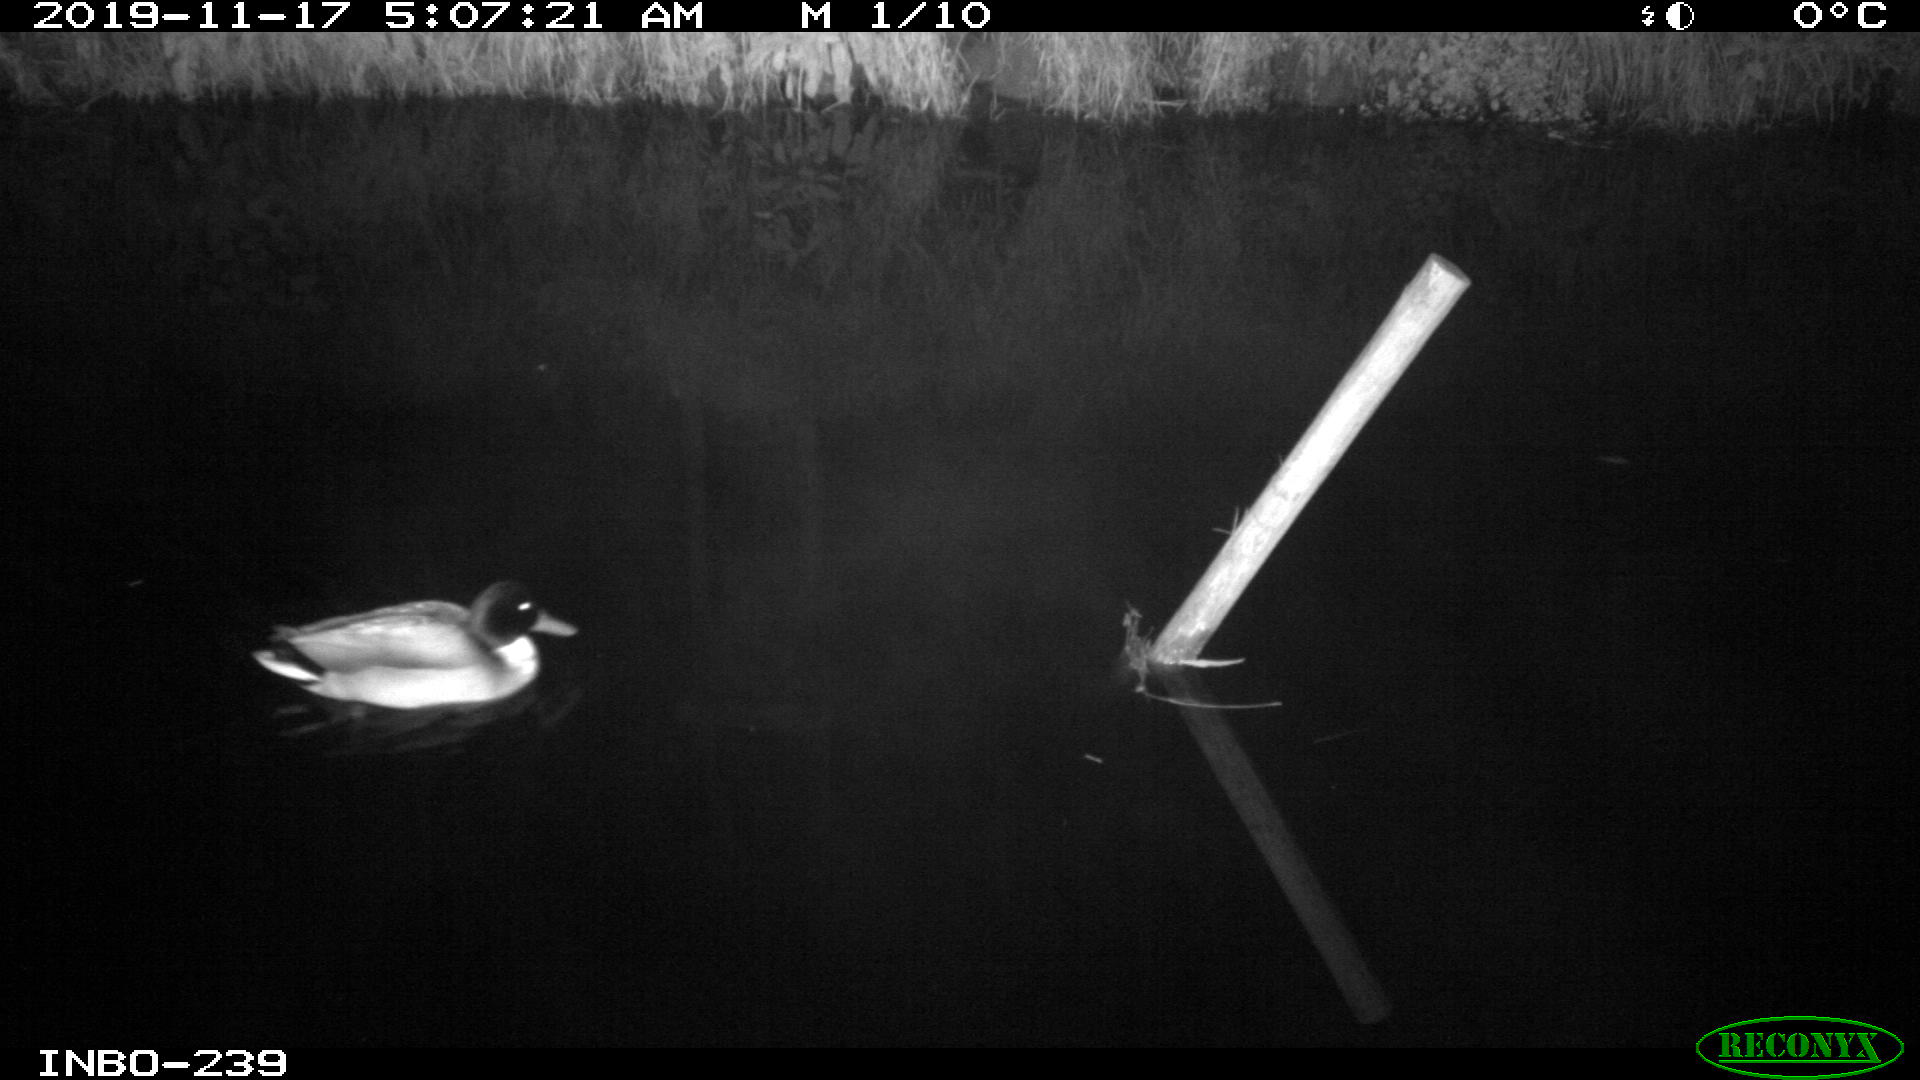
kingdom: Animalia
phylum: Chordata
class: Aves
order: Anseriformes
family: Anatidae
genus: Anas
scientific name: Anas platyrhynchos
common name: Mallard
